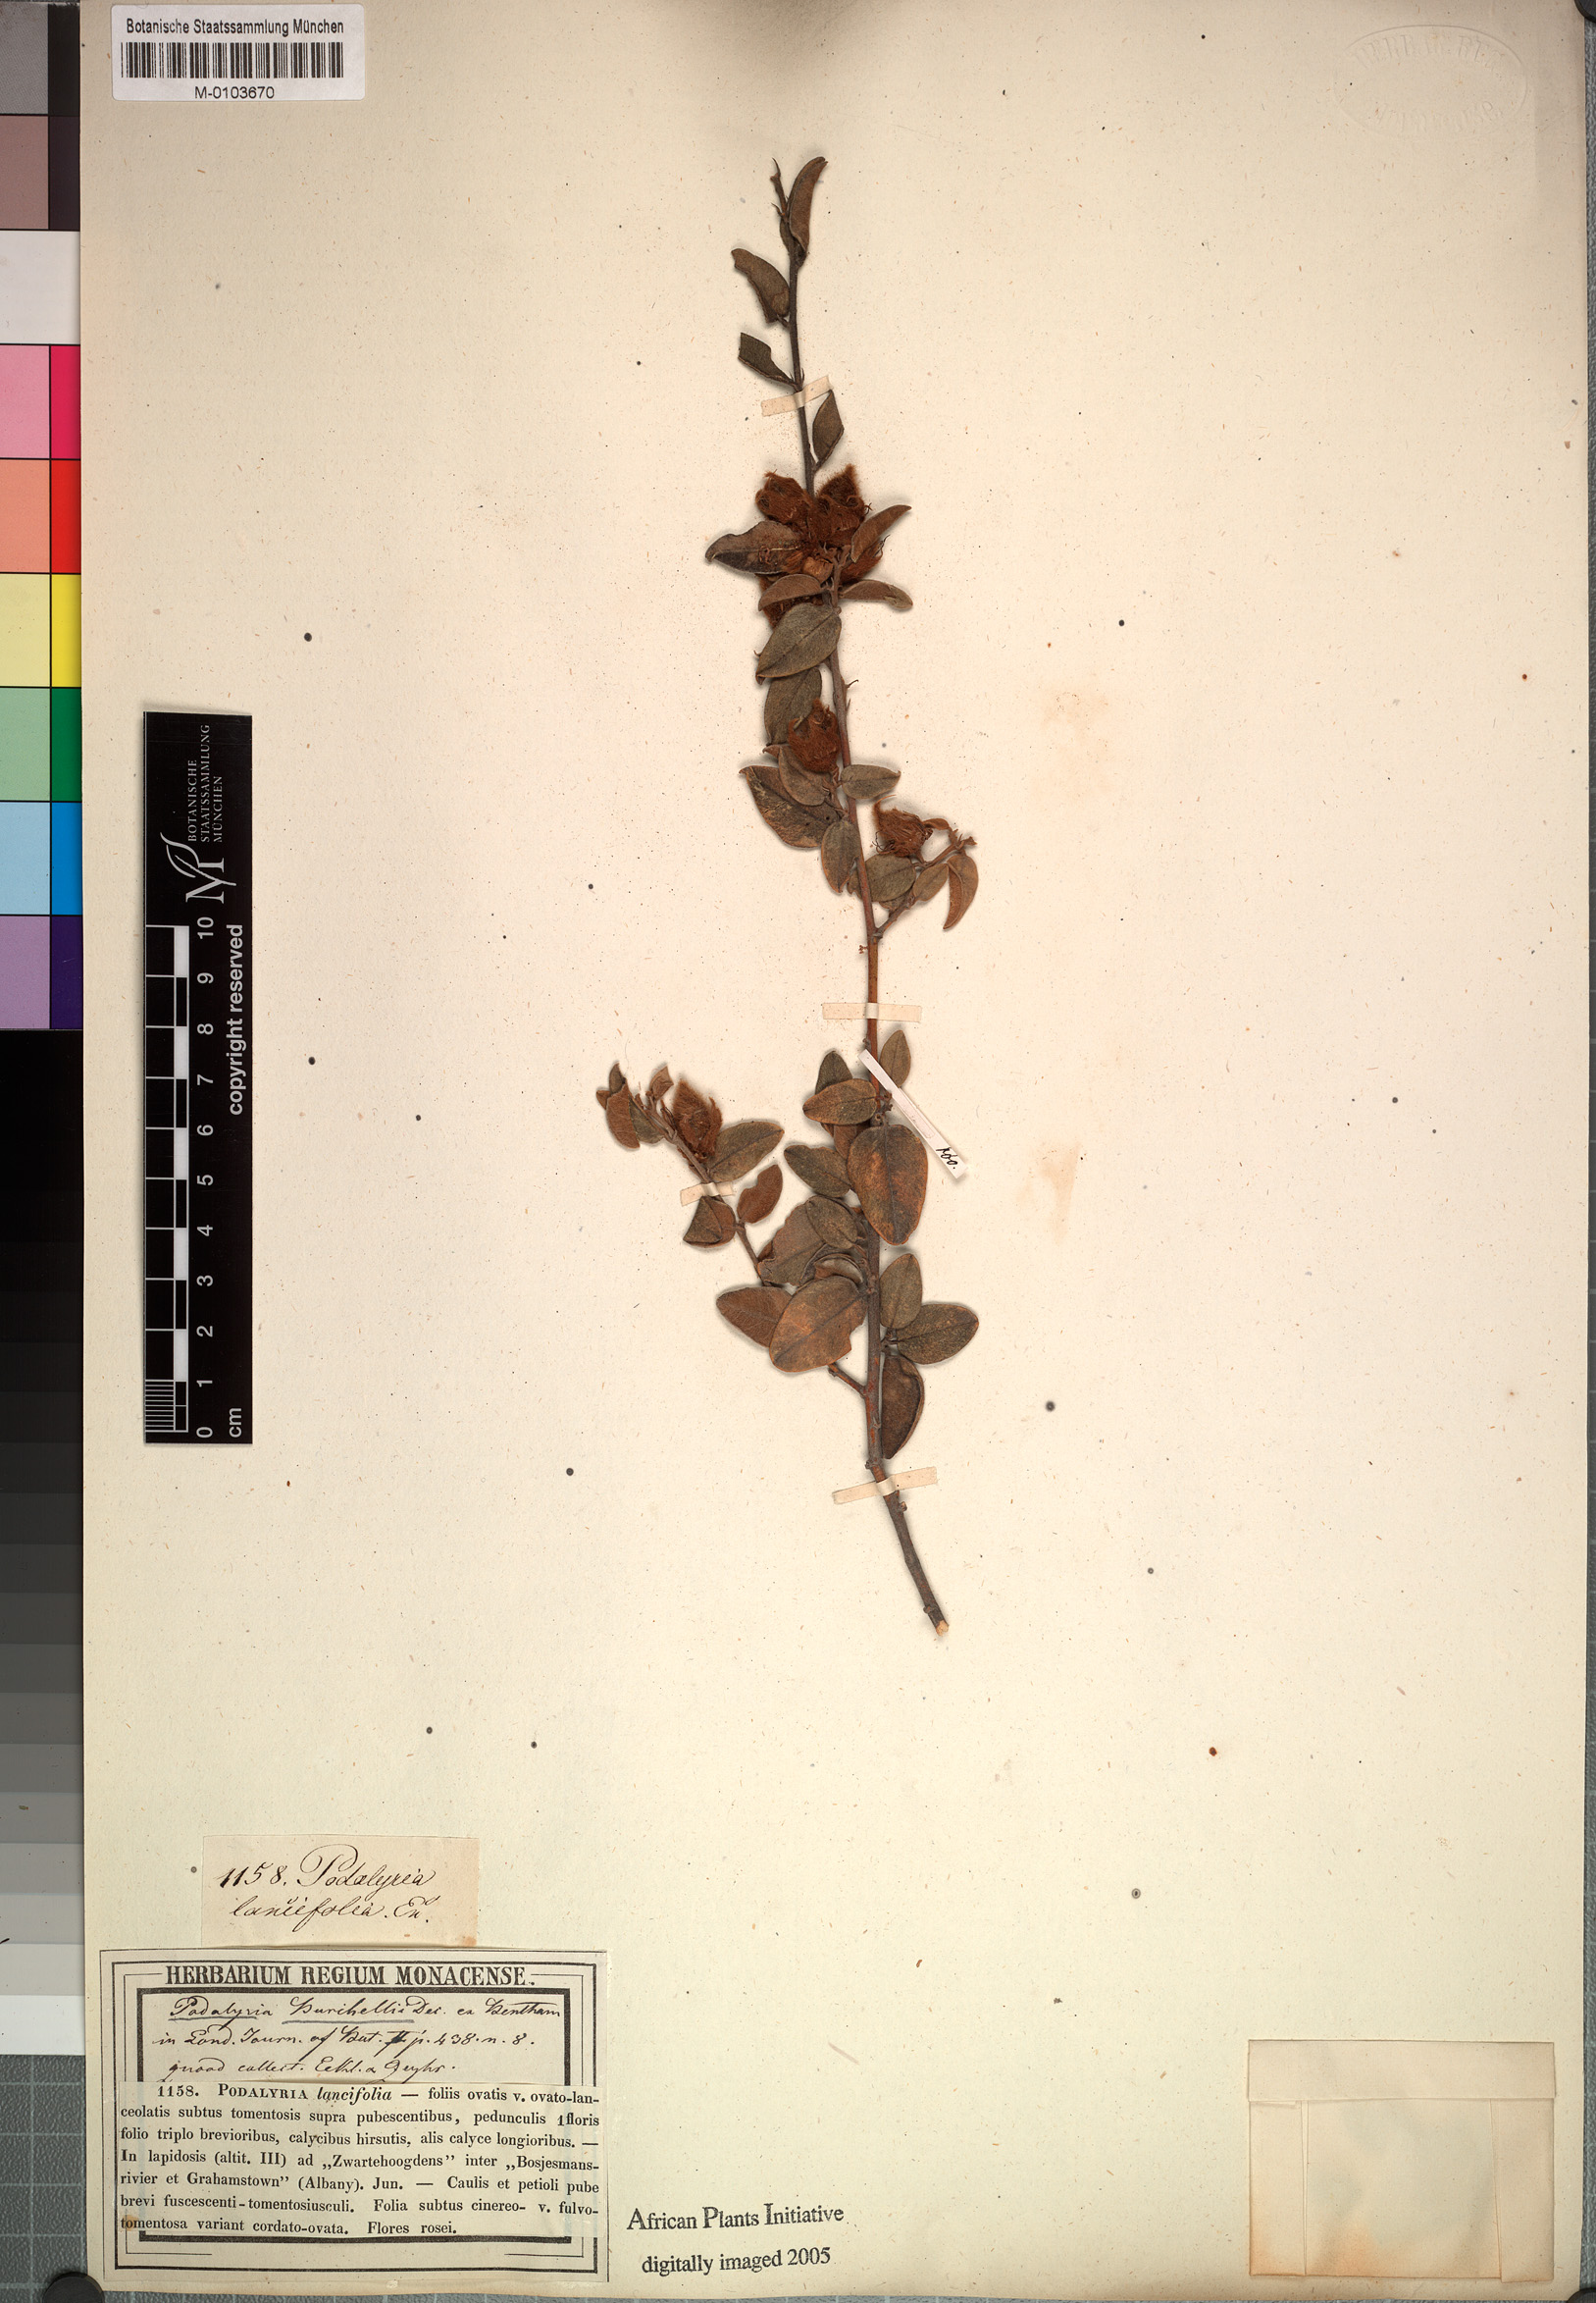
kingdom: Plantae
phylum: Tracheophyta
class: Magnoliopsida
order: Fabales
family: Fabaceae
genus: Podalyria
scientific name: Podalyria burchellii
